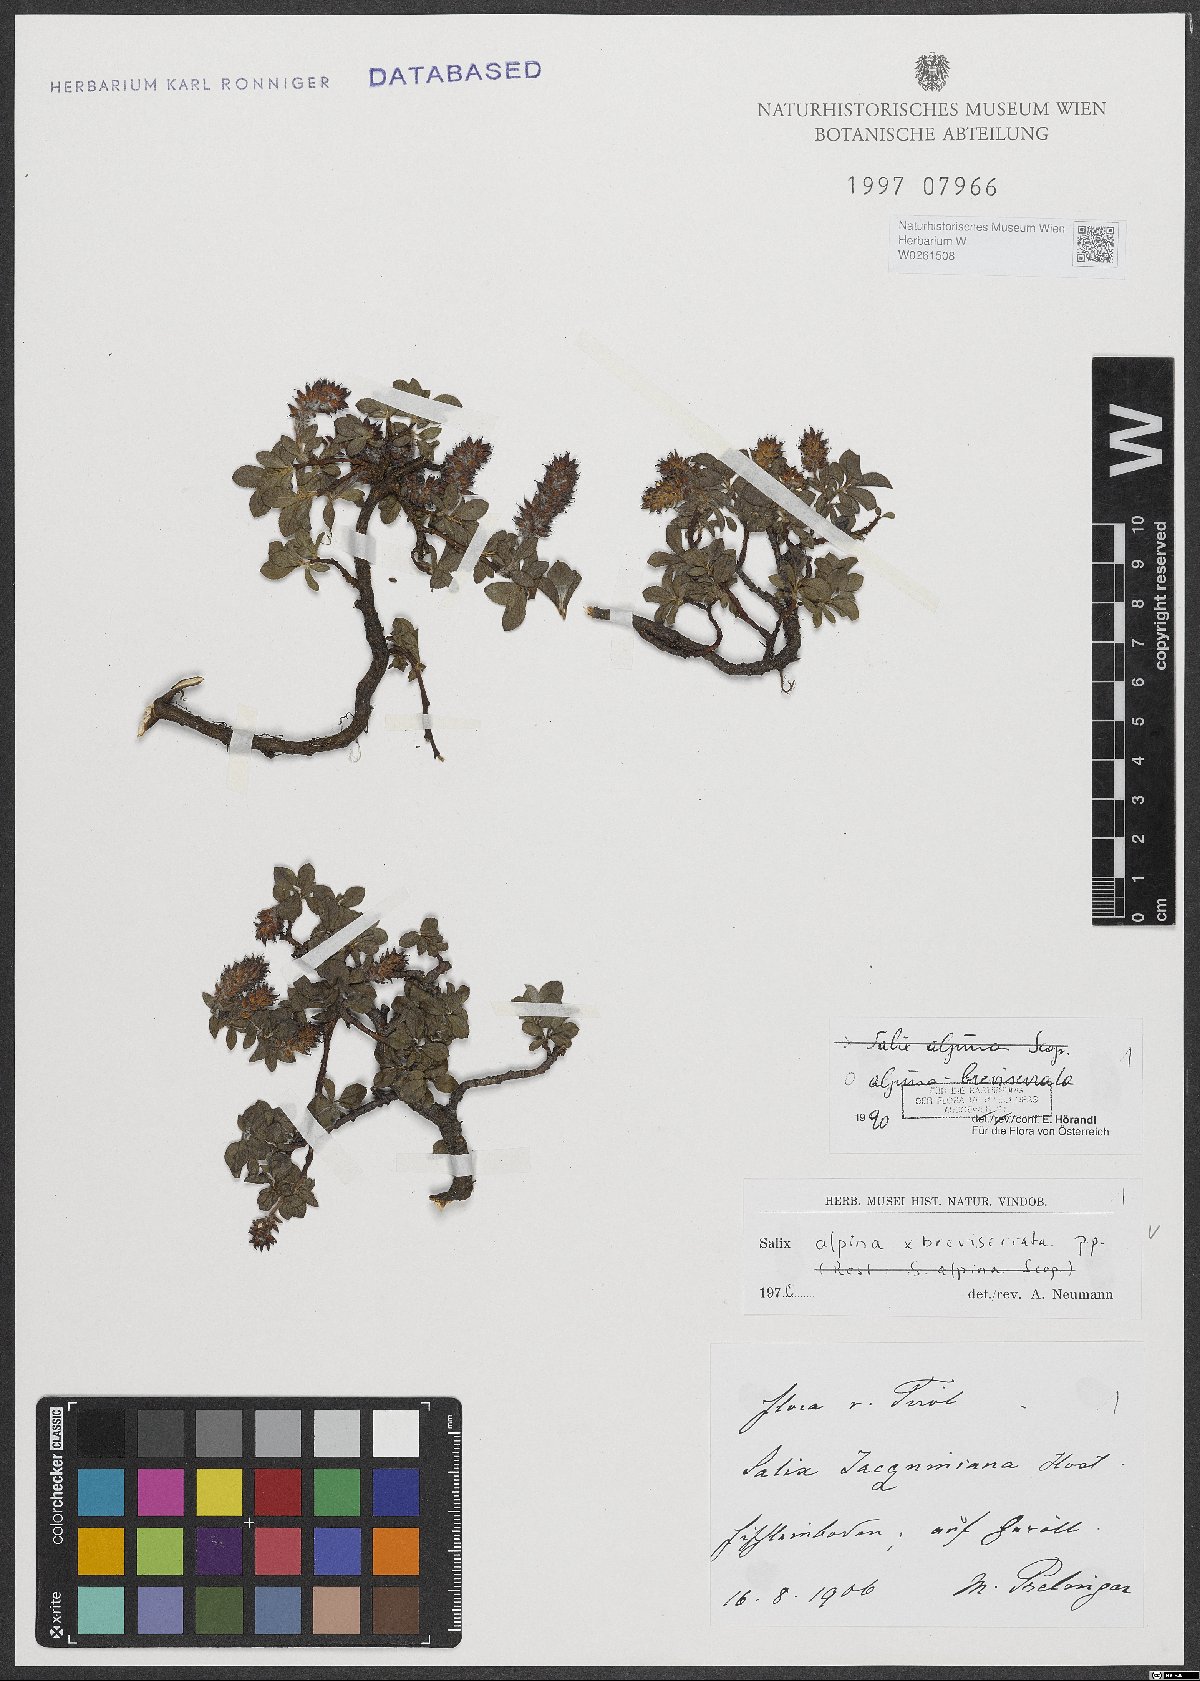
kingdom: Plantae
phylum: Tracheophyta
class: Magnoliopsida
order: Malpighiales
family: Salicaceae
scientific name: Salicaceae
